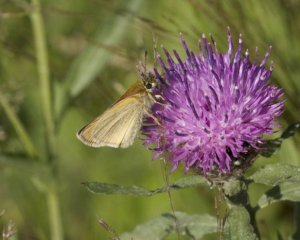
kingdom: Animalia
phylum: Arthropoda
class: Insecta
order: Lepidoptera
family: Hesperiidae
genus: Thymelicus
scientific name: Thymelicus lineola
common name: European Skipper
